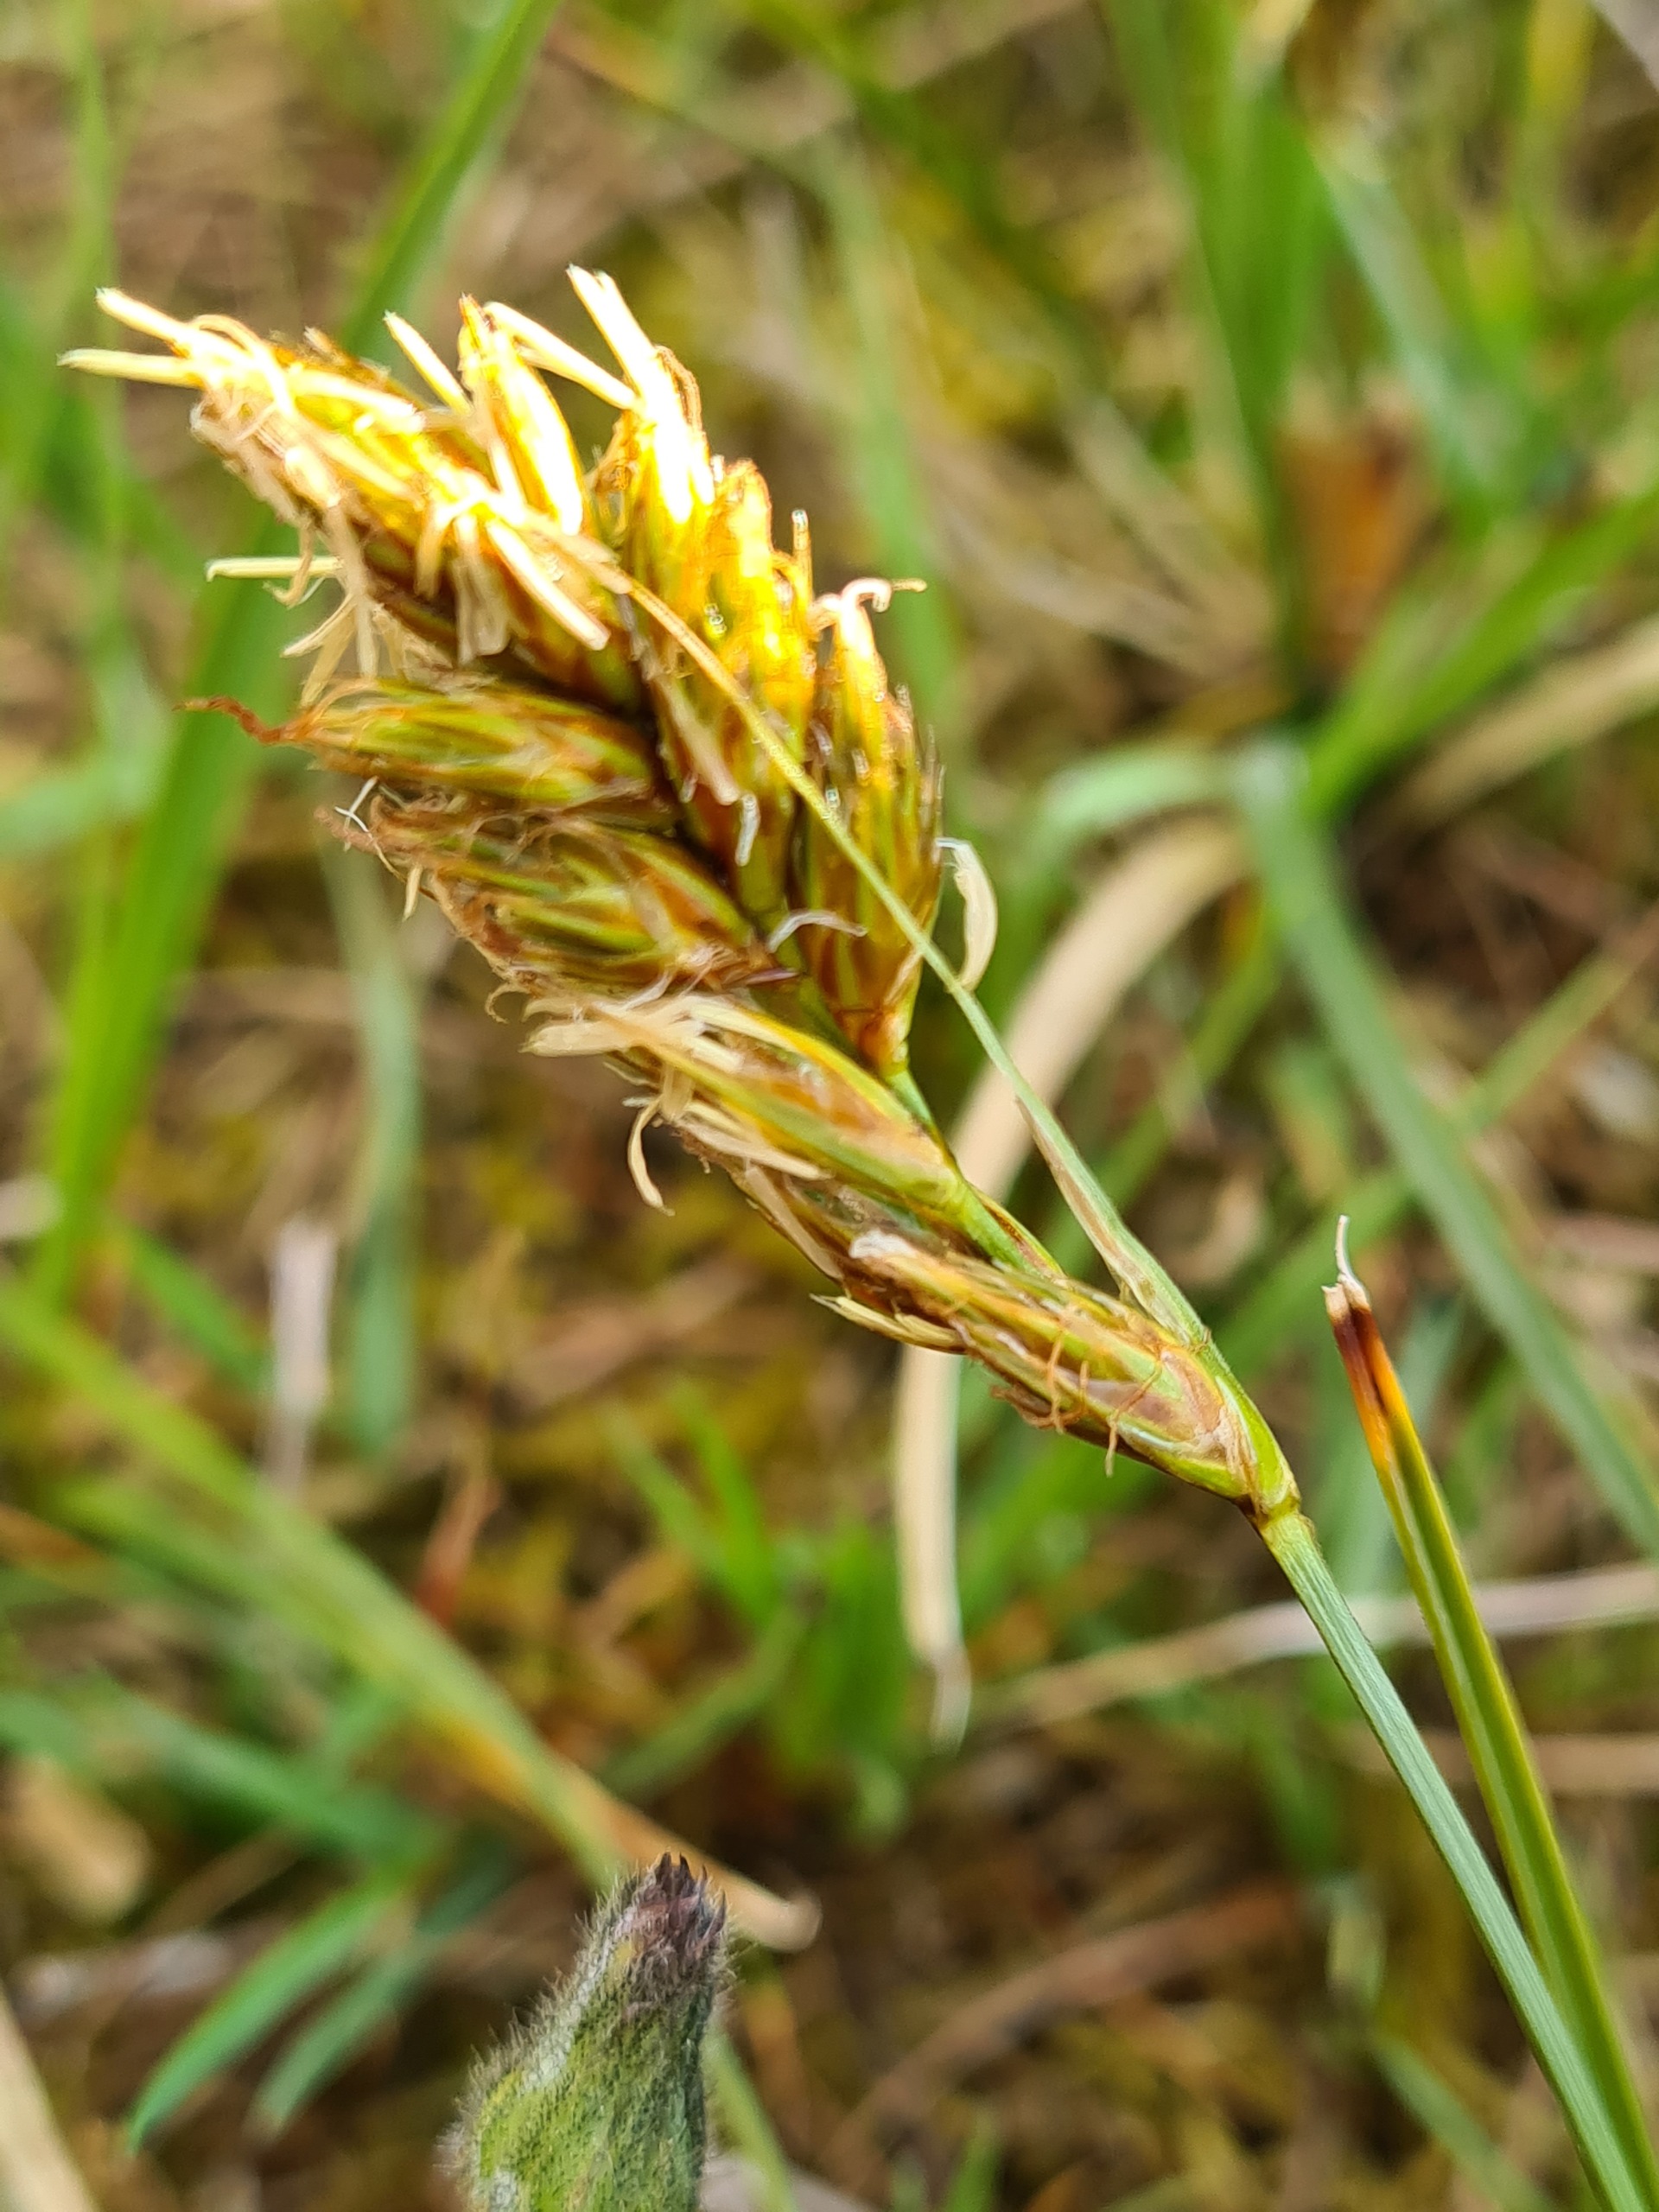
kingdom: Plantae
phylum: Tracheophyta
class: Liliopsida
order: Poales
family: Cyperaceae
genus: Carex
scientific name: Carex arenaria
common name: Sand-star
